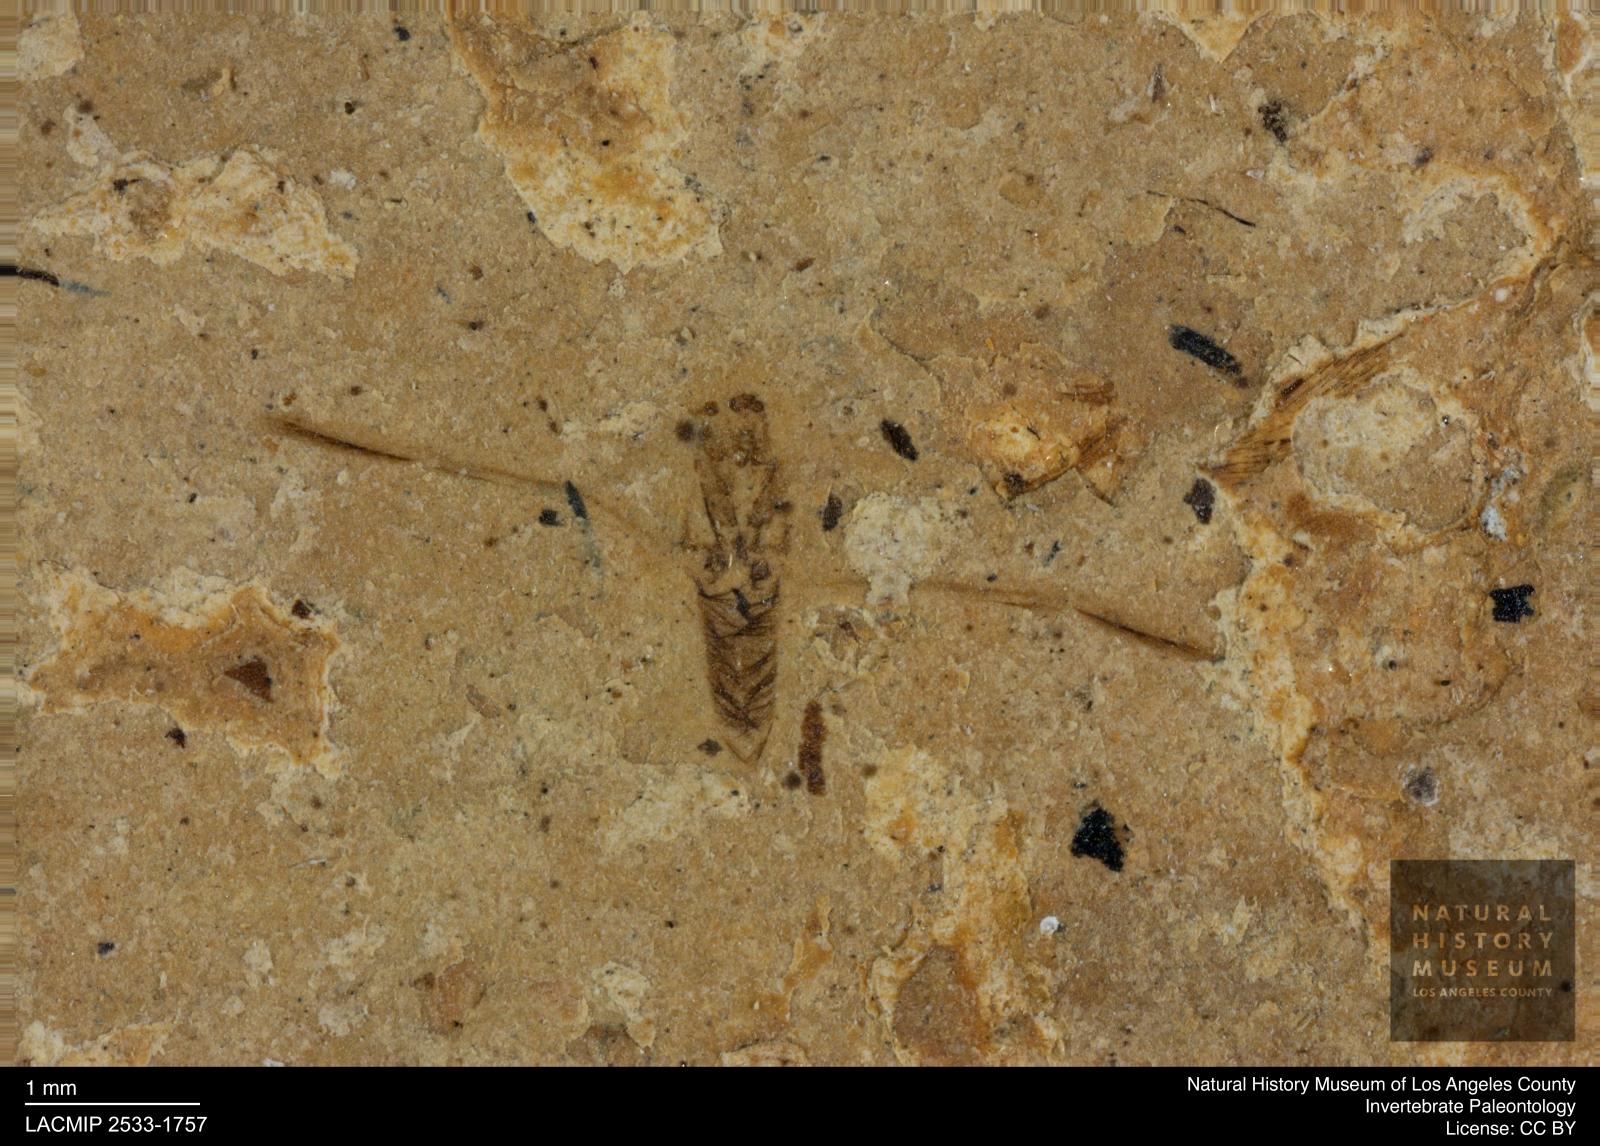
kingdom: Animalia
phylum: Arthropoda
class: Insecta
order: Hemiptera
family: Notonectidae
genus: Notonecta
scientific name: Notonecta
